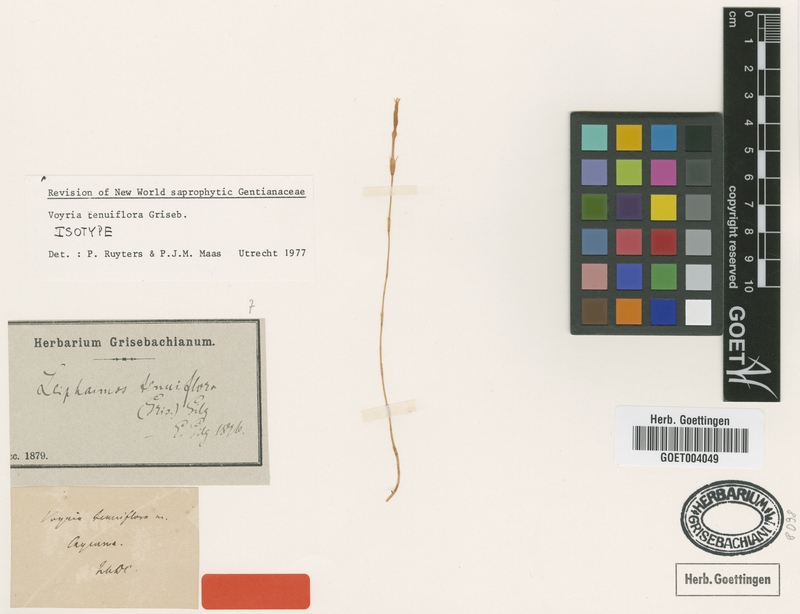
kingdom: Plantae
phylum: Tracheophyta
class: Magnoliopsida
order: Gentianales
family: Gentianaceae
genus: Voyria
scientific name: Voyria tenuiflora
